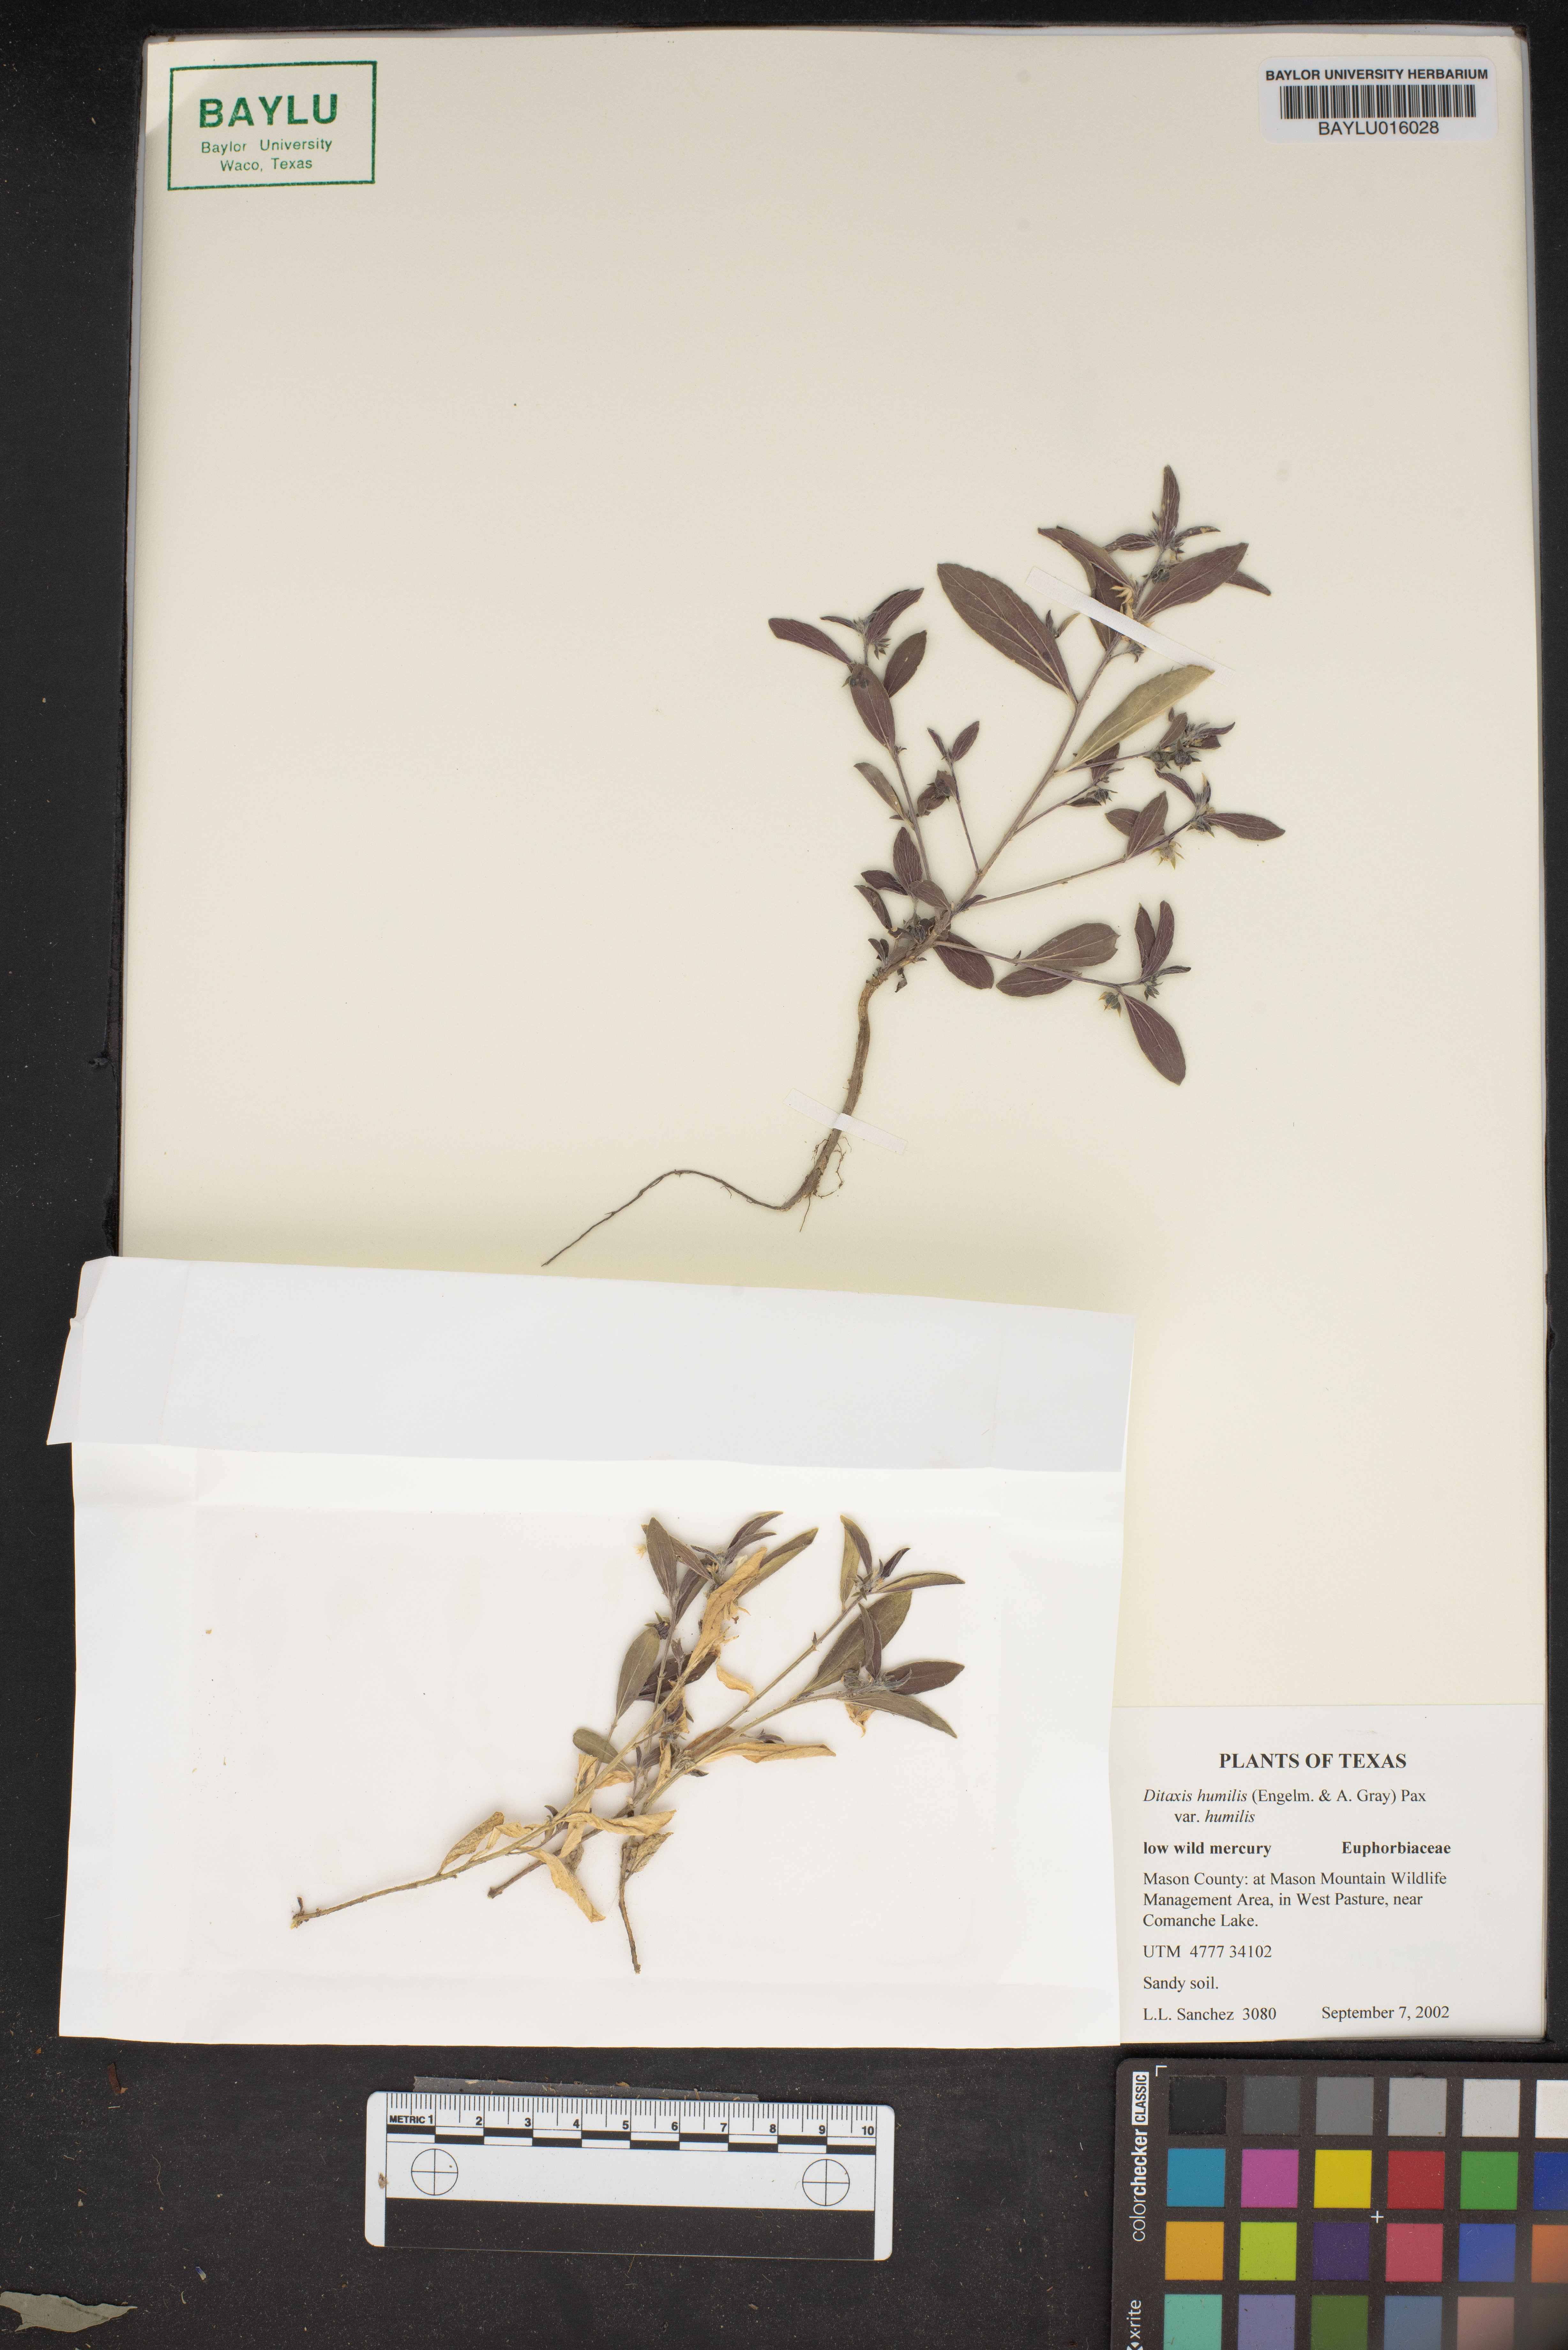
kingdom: Plantae
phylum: Tracheophyta
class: Magnoliopsida
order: Malpighiales
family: Euphorbiaceae
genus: Ditaxis
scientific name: Ditaxis humilis
